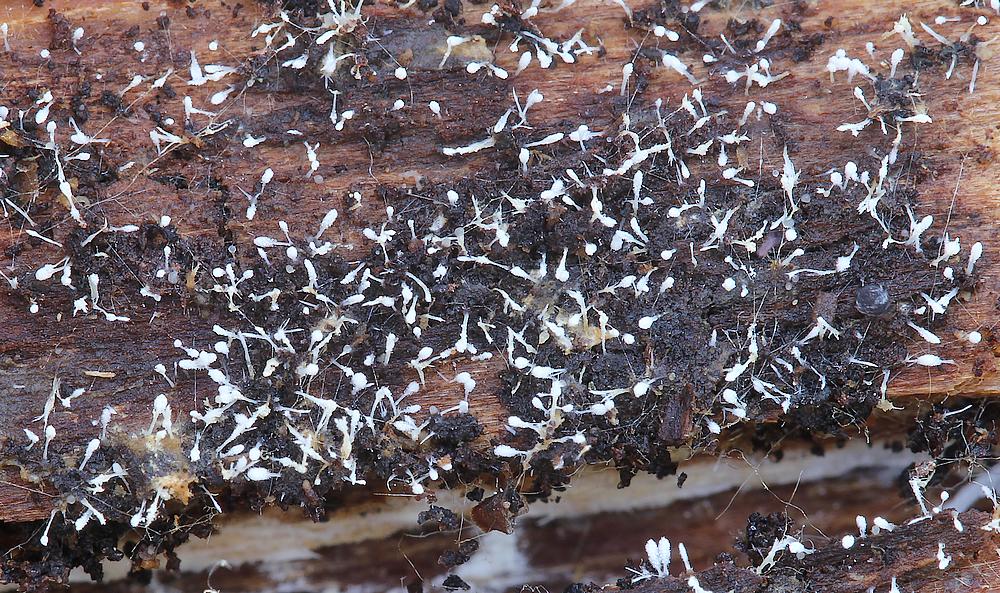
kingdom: Fungi
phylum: Ascomycota
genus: Sphaeridium
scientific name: Sphaeridium candidulum
